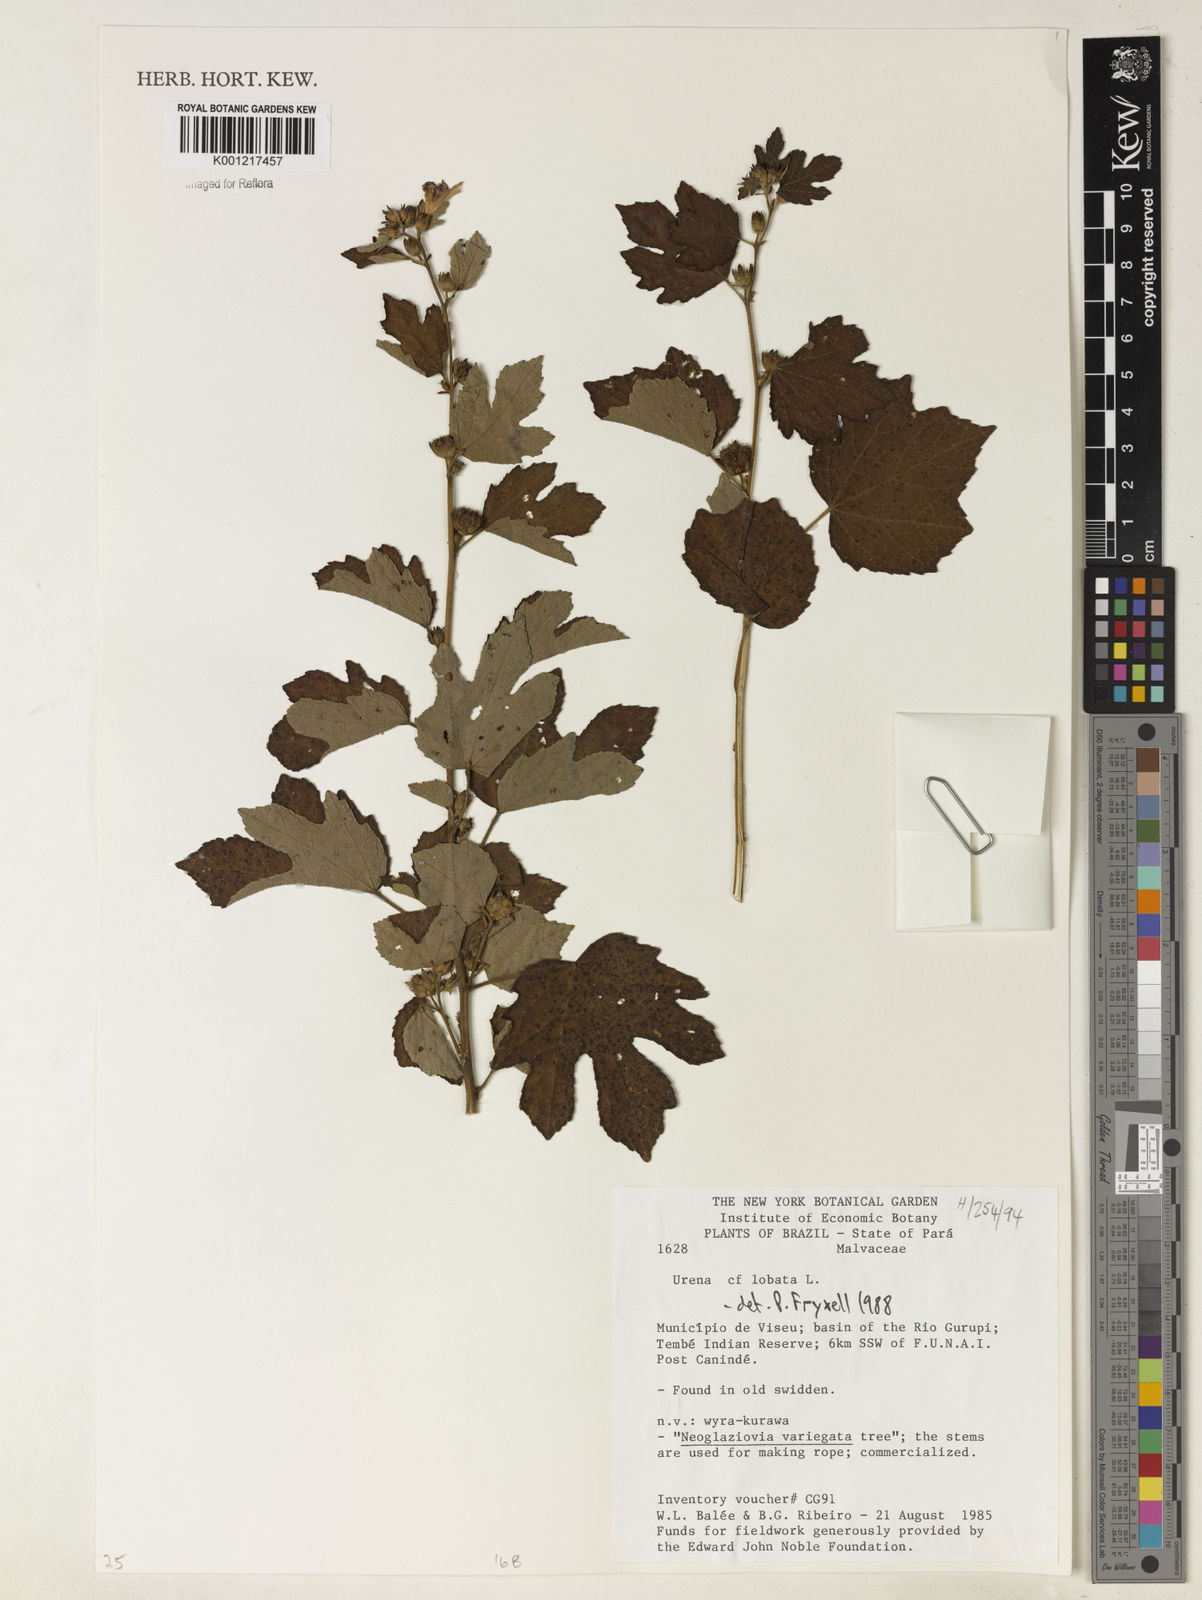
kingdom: Plantae
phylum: Tracheophyta
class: Magnoliopsida
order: Malvales
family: Malvaceae
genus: Urena
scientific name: Urena lobata
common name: Caesarweed
